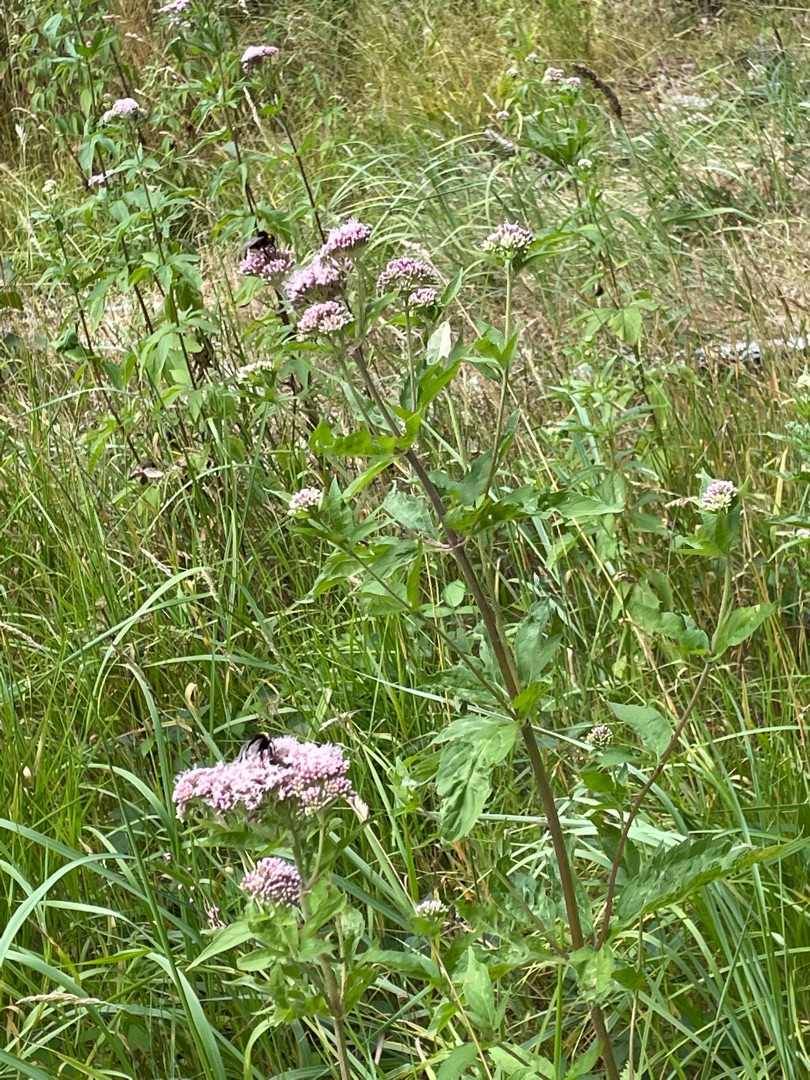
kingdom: Plantae
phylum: Tracheophyta
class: Magnoliopsida
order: Asterales
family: Asteraceae
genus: Eupatorium
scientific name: Eupatorium cannabinum
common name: Hjortetrøst
